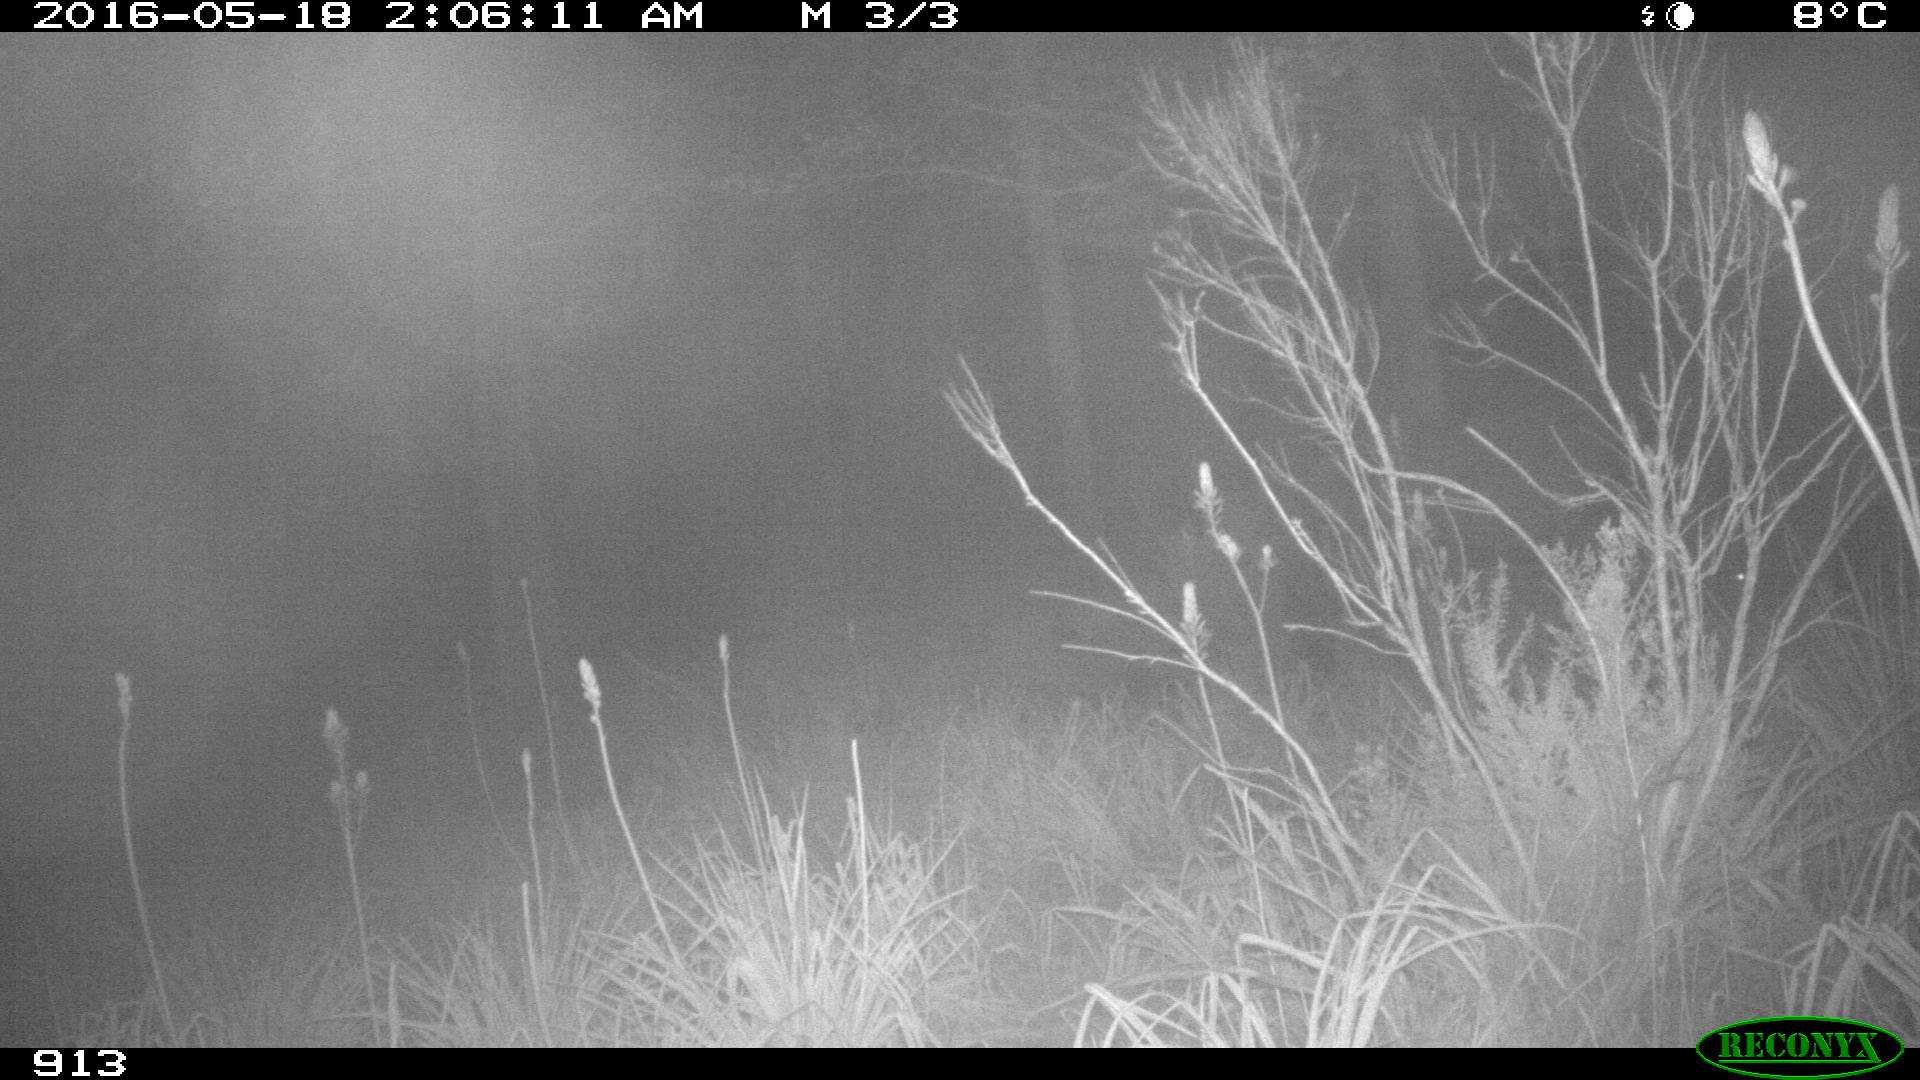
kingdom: Animalia
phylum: Chordata
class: Mammalia
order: Perissodactyla
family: Equidae
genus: Equus
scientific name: Equus caballus
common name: Horse
